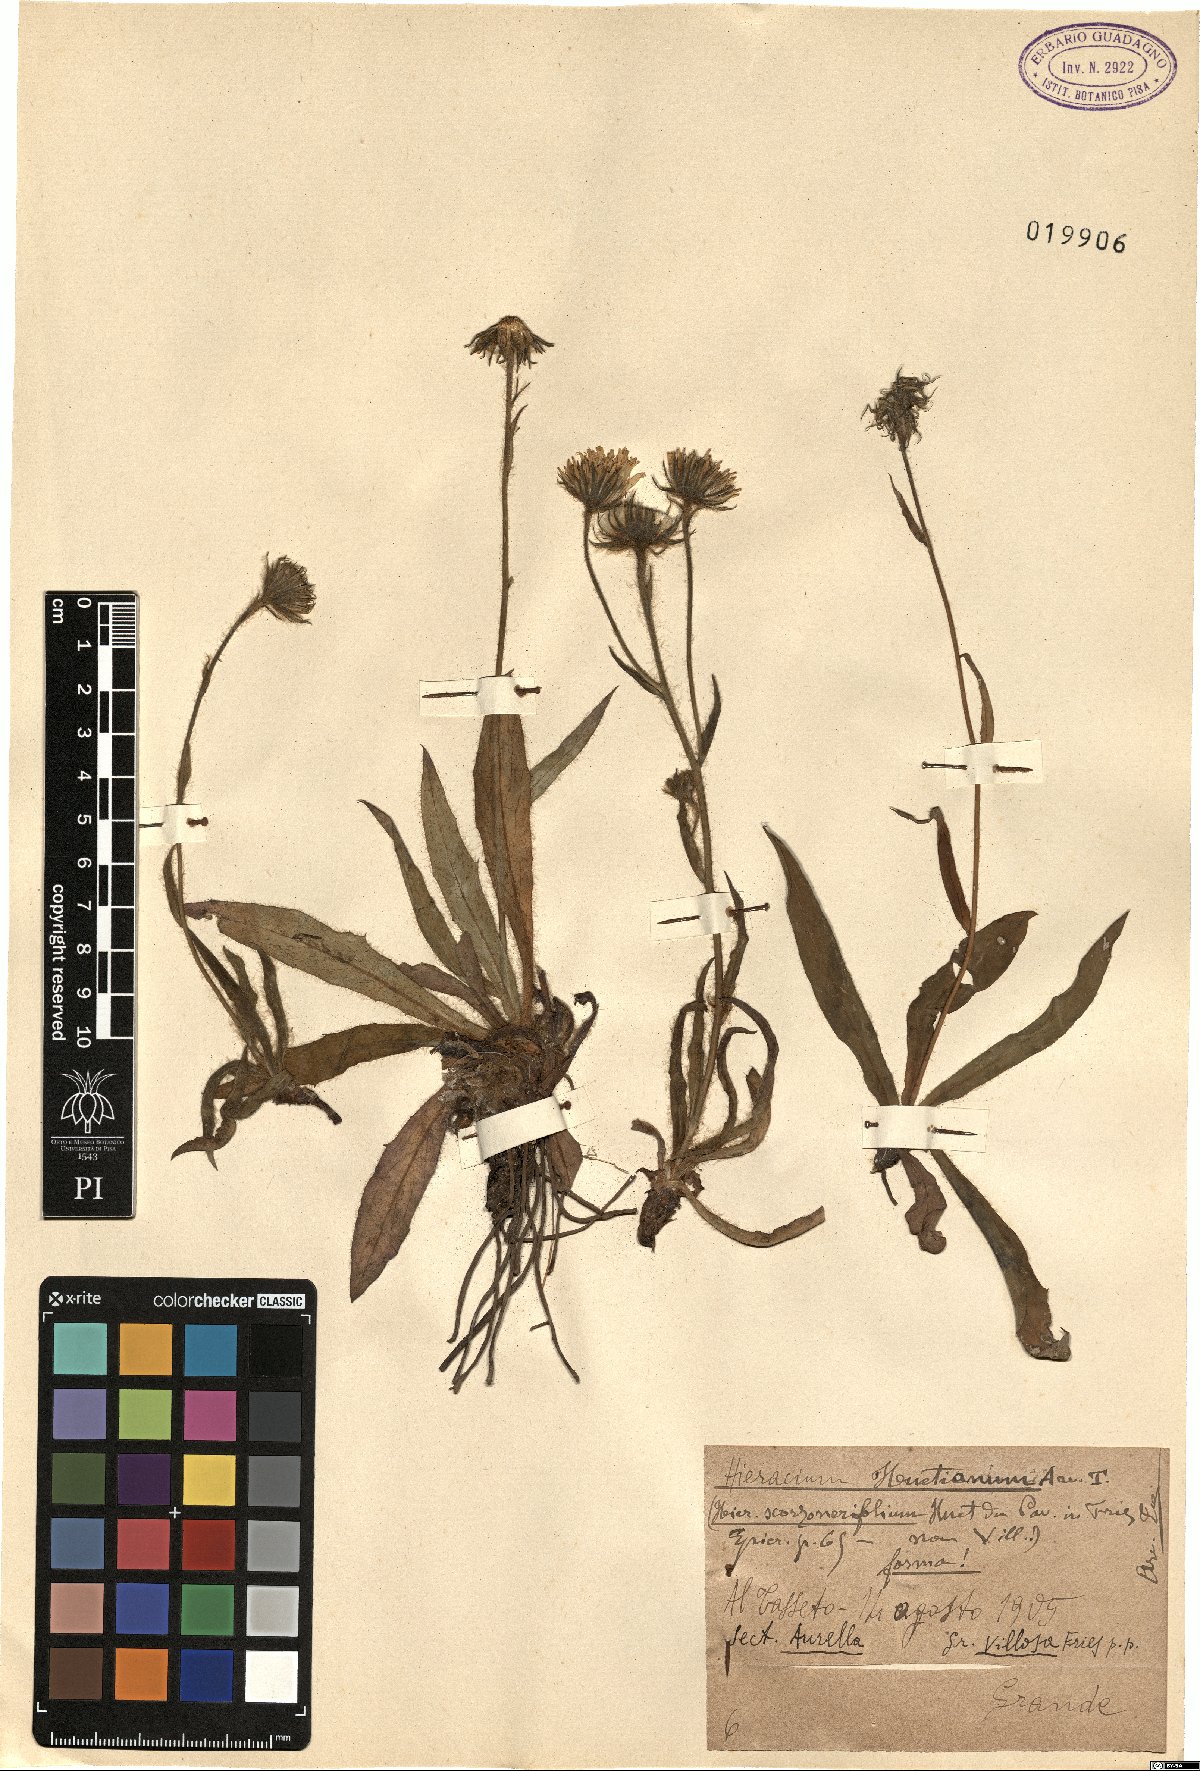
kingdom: Plantae
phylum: Tracheophyta
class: Magnoliopsida
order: Asterales
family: Asteraceae
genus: Pilosella
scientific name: Pilosella arida
